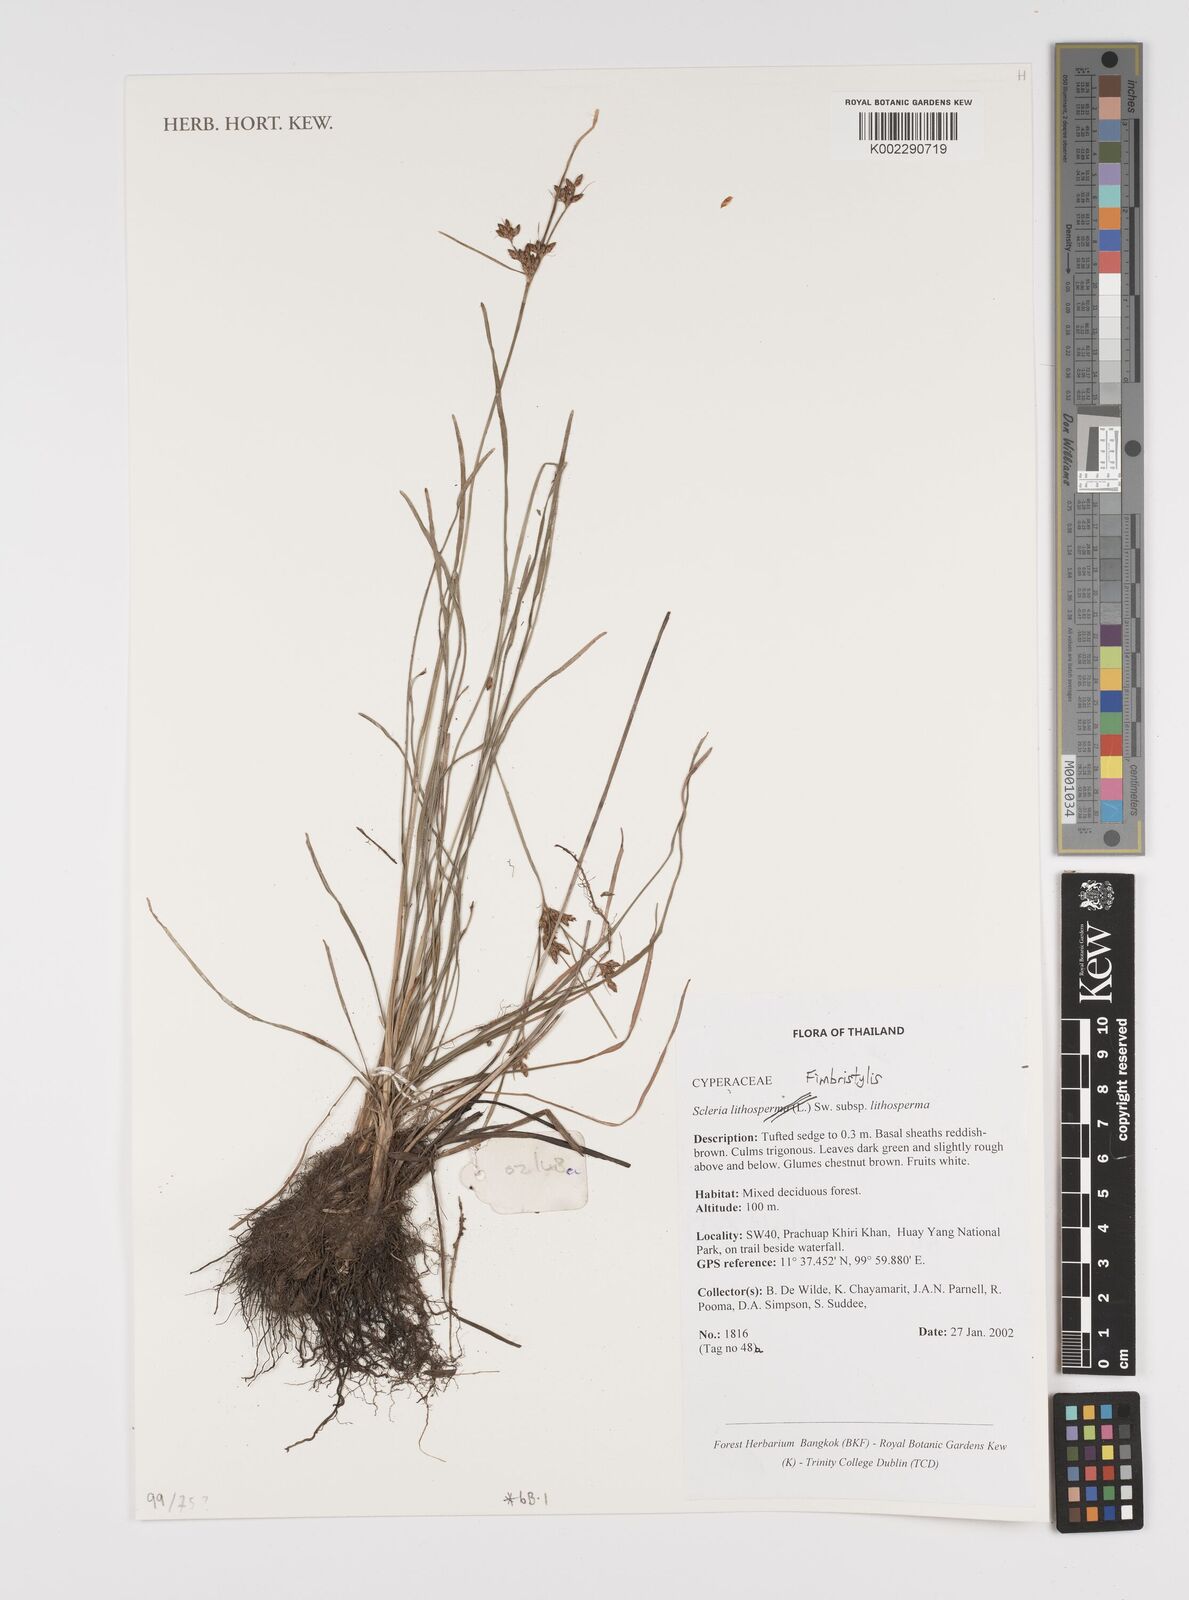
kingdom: Plantae
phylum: Tracheophyta
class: Liliopsida
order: Poales
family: Cyperaceae
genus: Fimbristylis
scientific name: Fimbristylis
